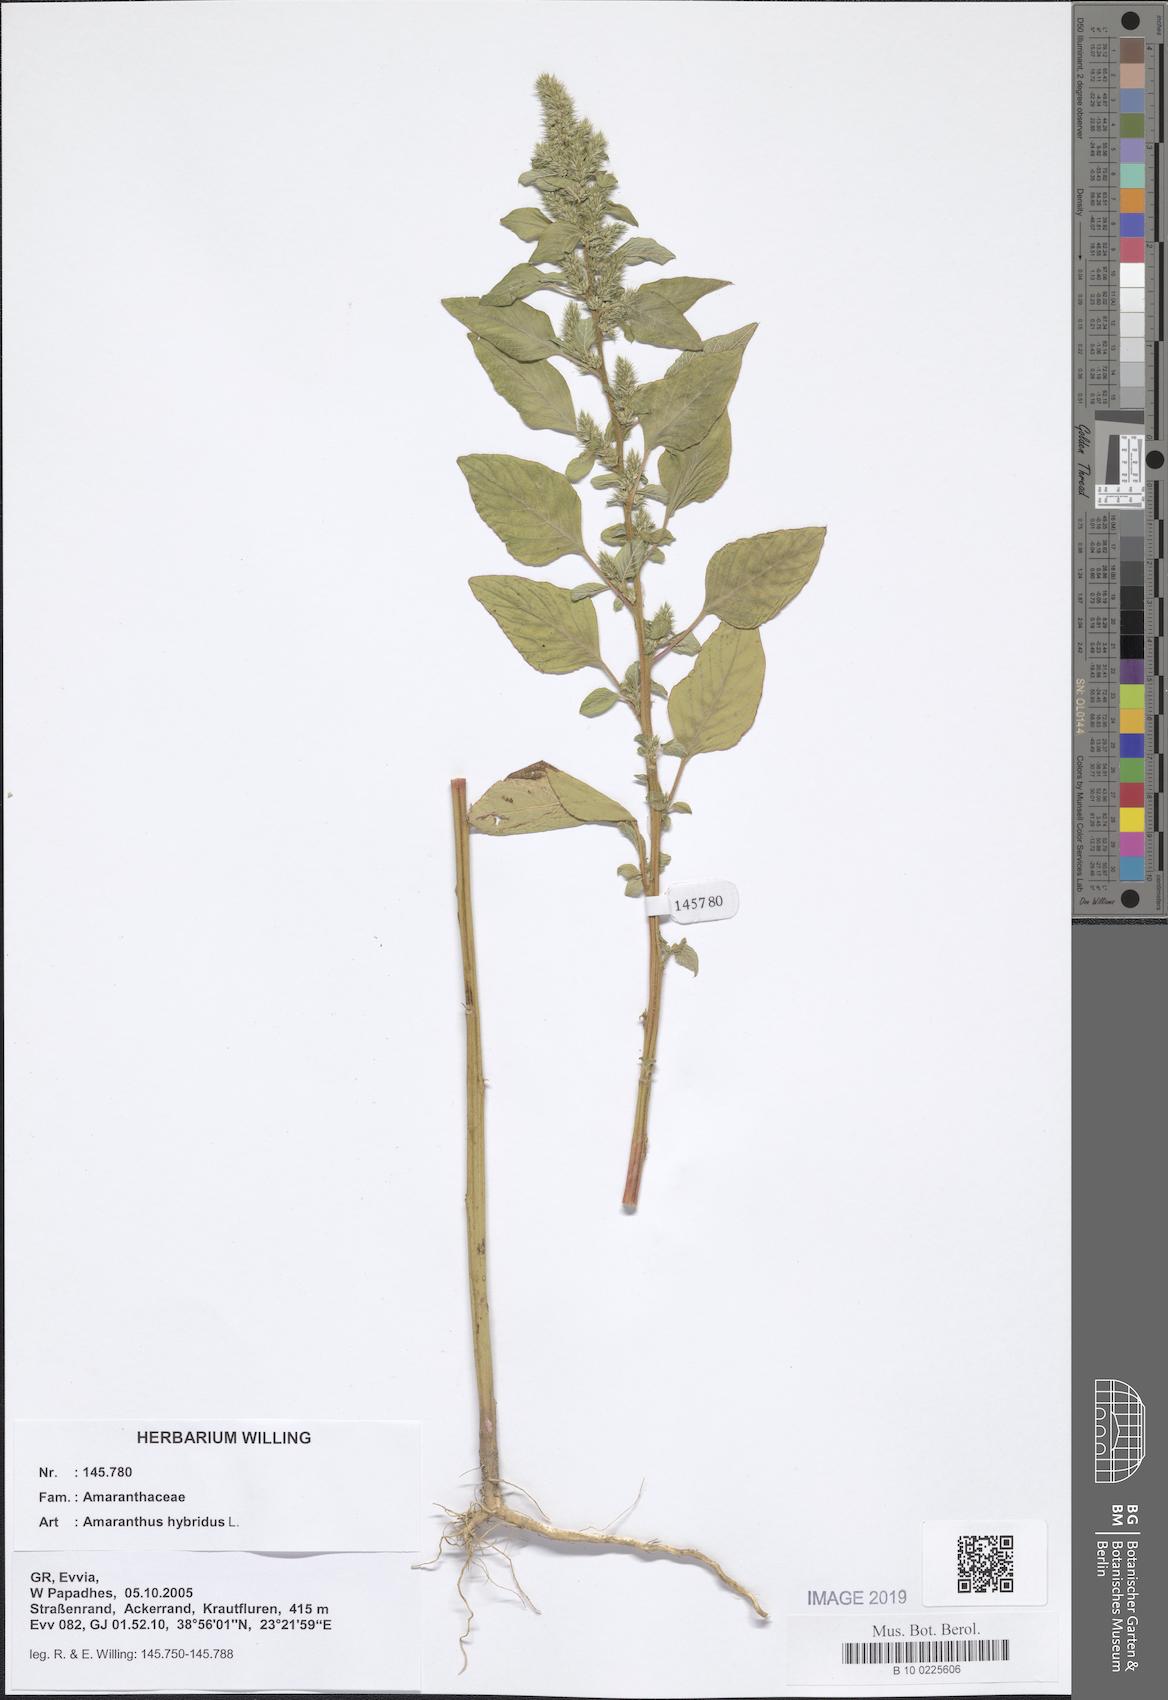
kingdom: Plantae
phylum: Tracheophyta
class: Magnoliopsida
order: Caryophyllales
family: Amaranthaceae
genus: Amaranthus
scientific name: Amaranthus hybridus
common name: Green amaranth
